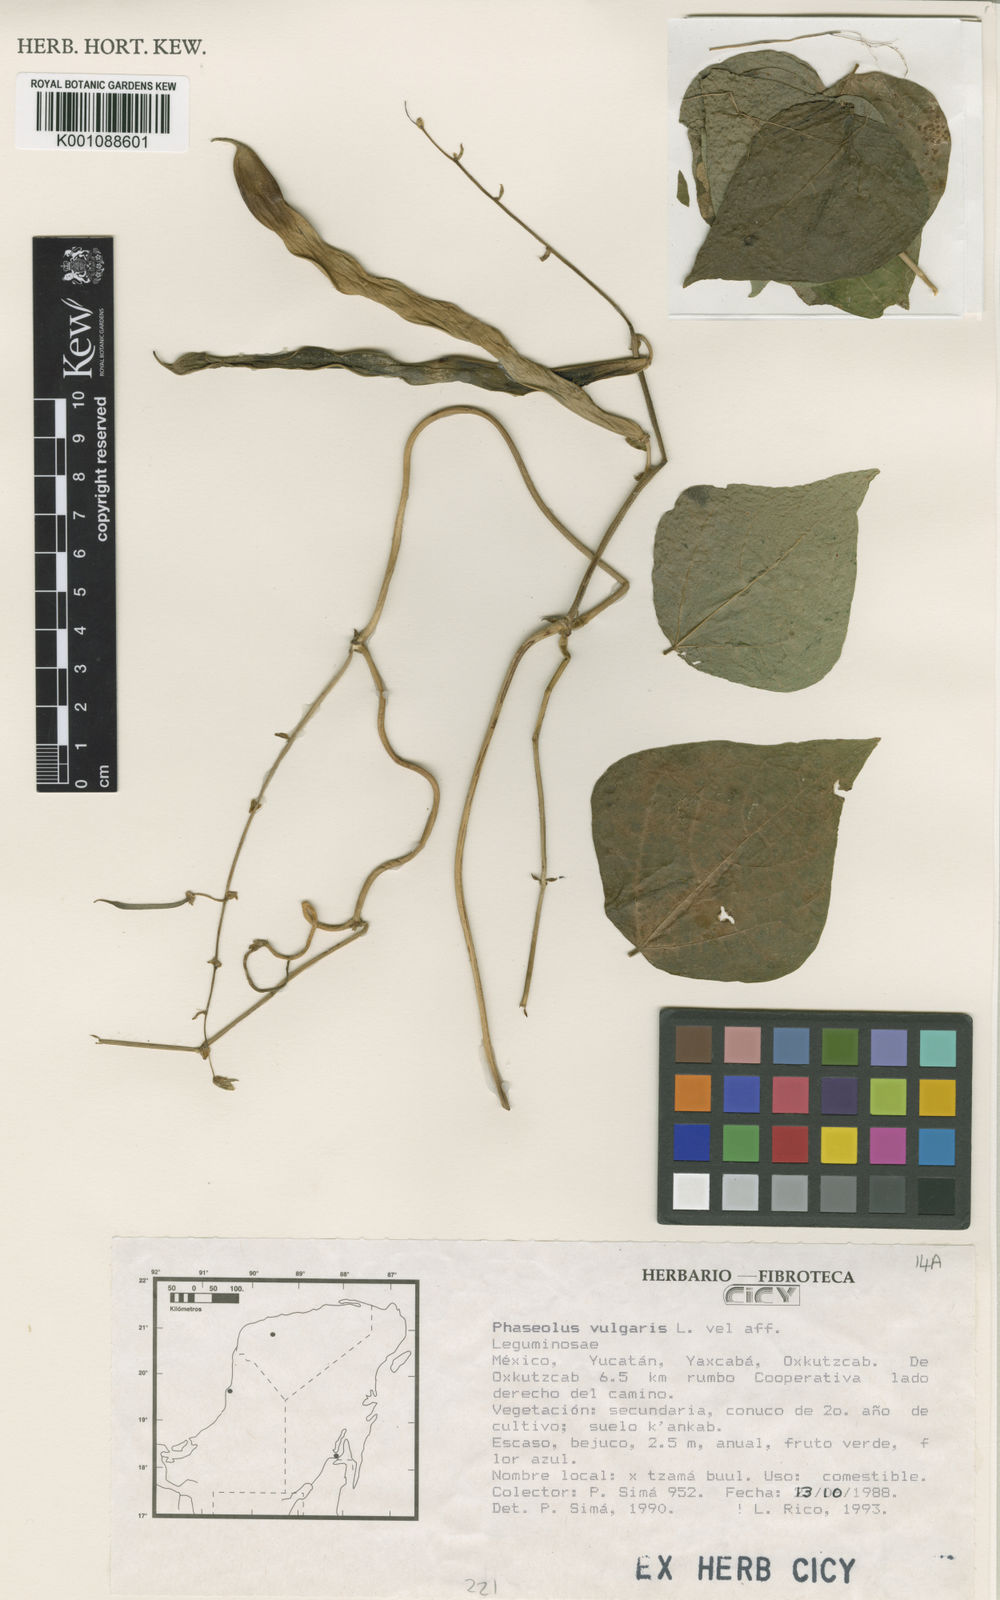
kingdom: Plantae
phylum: Tracheophyta
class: Magnoliopsida
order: Fabales
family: Fabaceae
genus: Phaseolus
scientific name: Phaseolus vulgaris
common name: Bean
